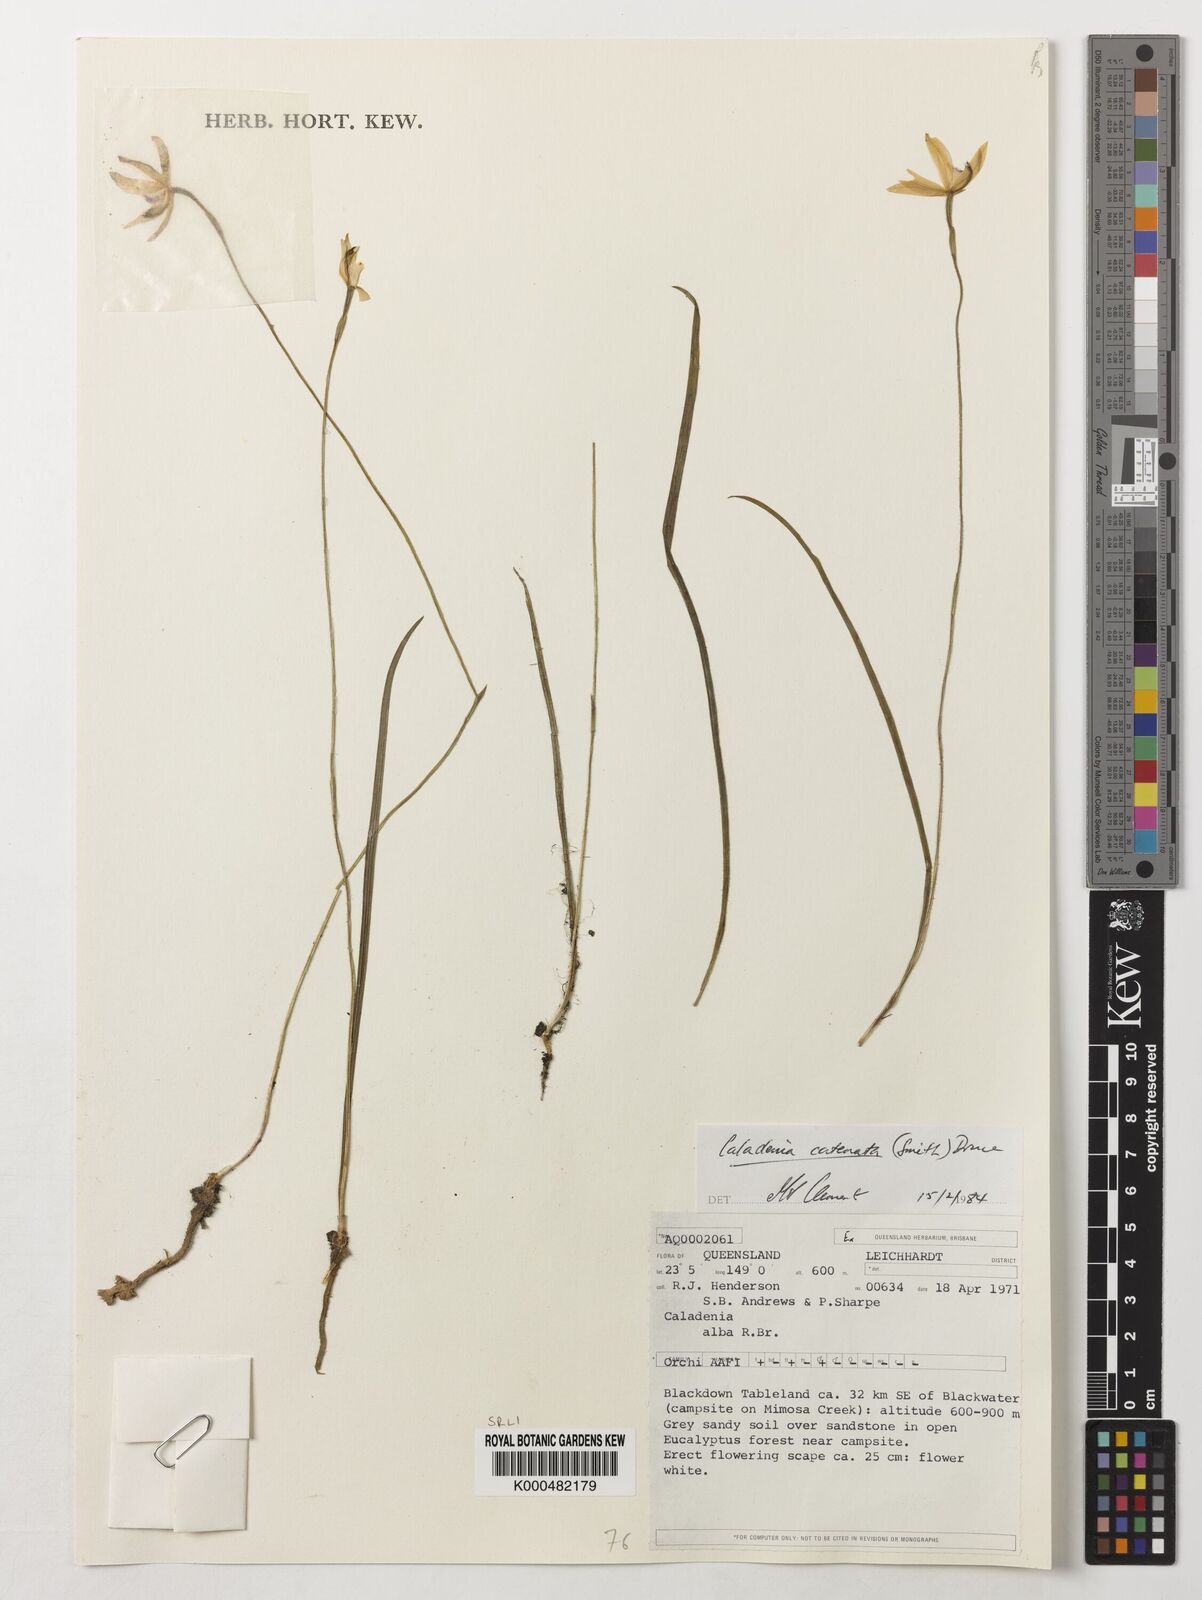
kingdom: Plantae
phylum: Tracheophyta
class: Liliopsida
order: Asparagales
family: Orchidaceae
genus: Caladenia
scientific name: Caladenia
